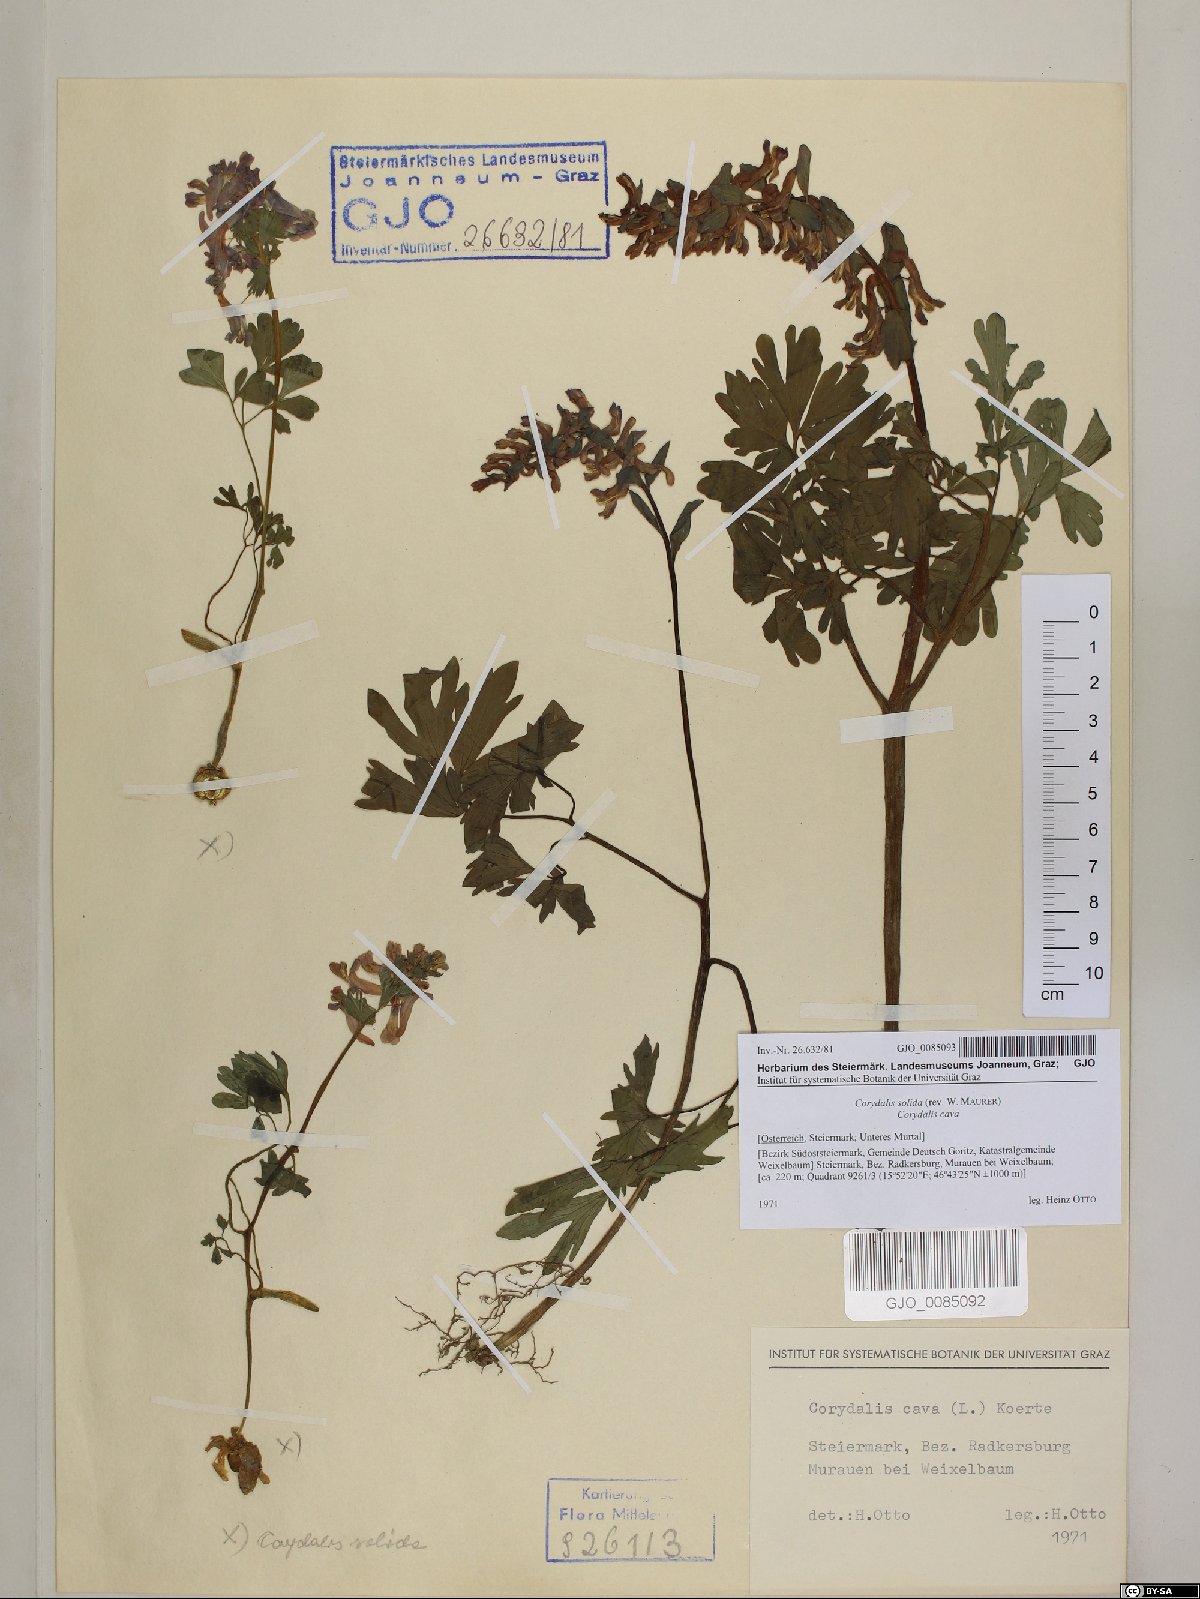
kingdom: Plantae
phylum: Tracheophyta
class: Magnoliopsida
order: Ranunculales
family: Papaveraceae
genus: Corydalis
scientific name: Corydalis solida
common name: Bird-in-a-bush
